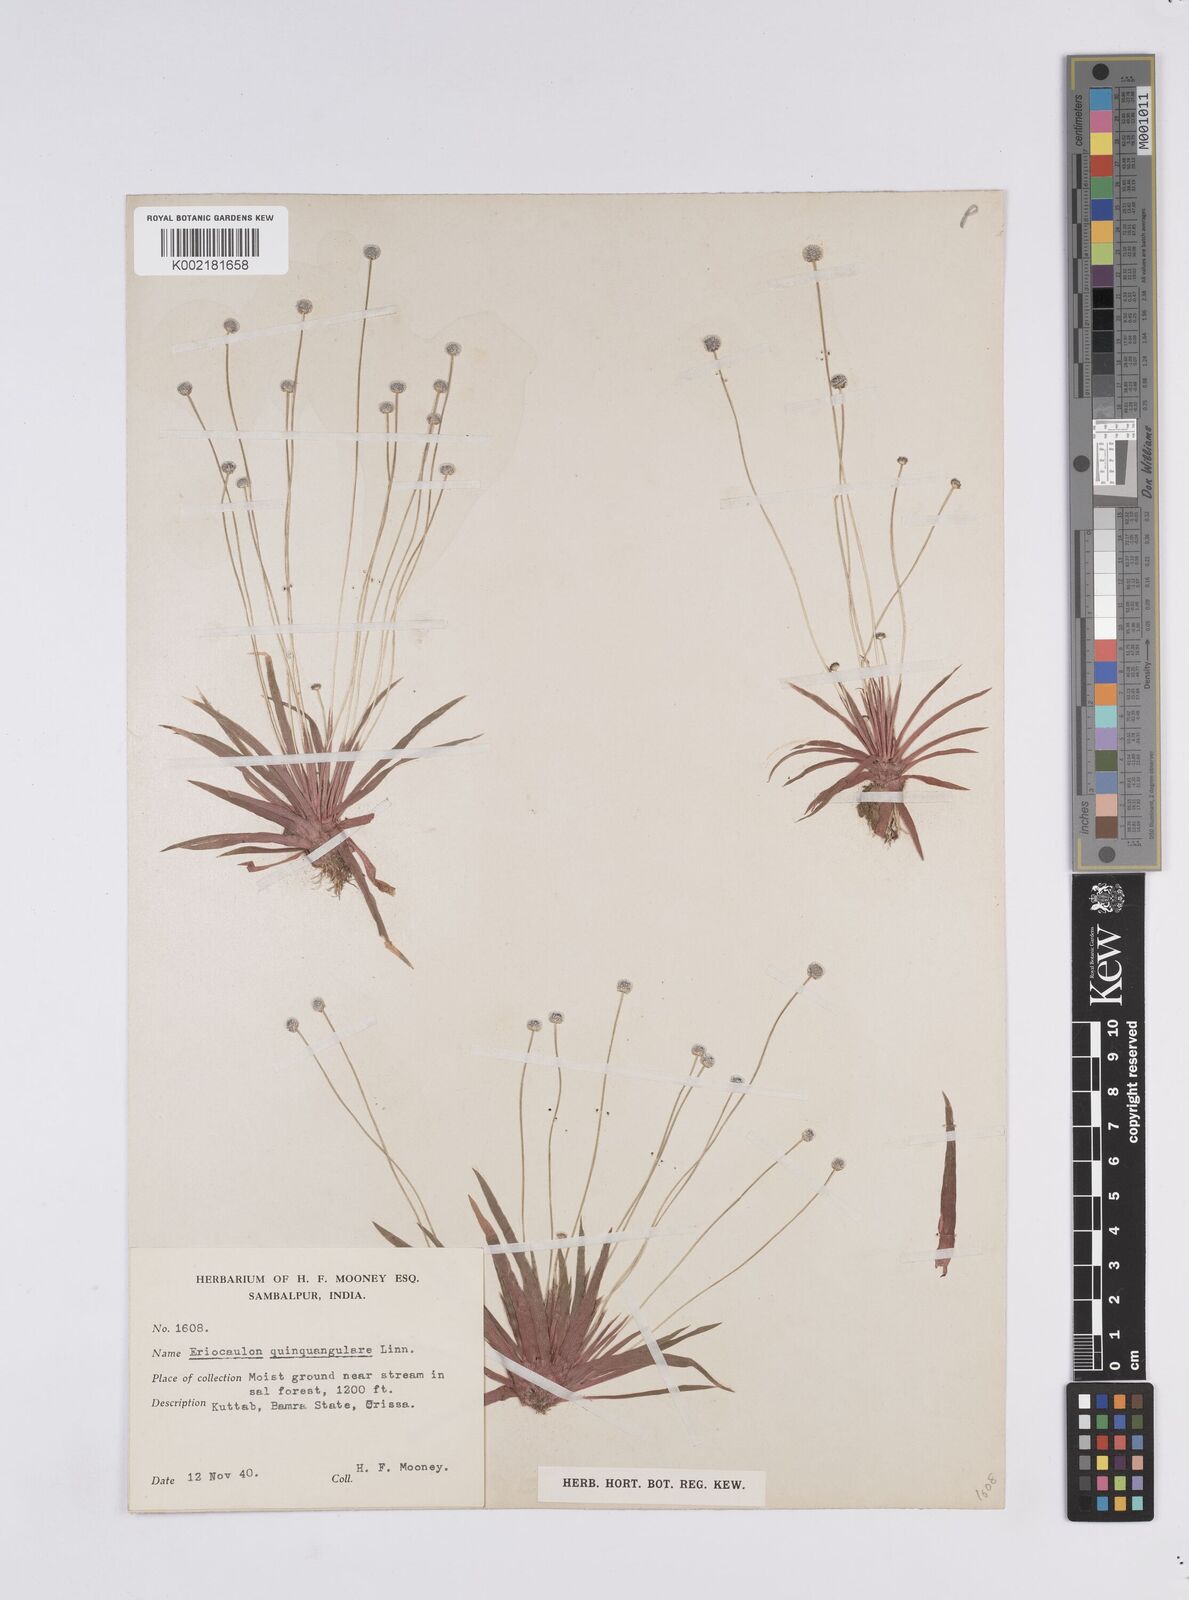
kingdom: Plantae
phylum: Tracheophyta
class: Liliopsida
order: Poales
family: Eriocaulaceae
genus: Eriocaulon
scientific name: Eriocaulon quinquangulare
